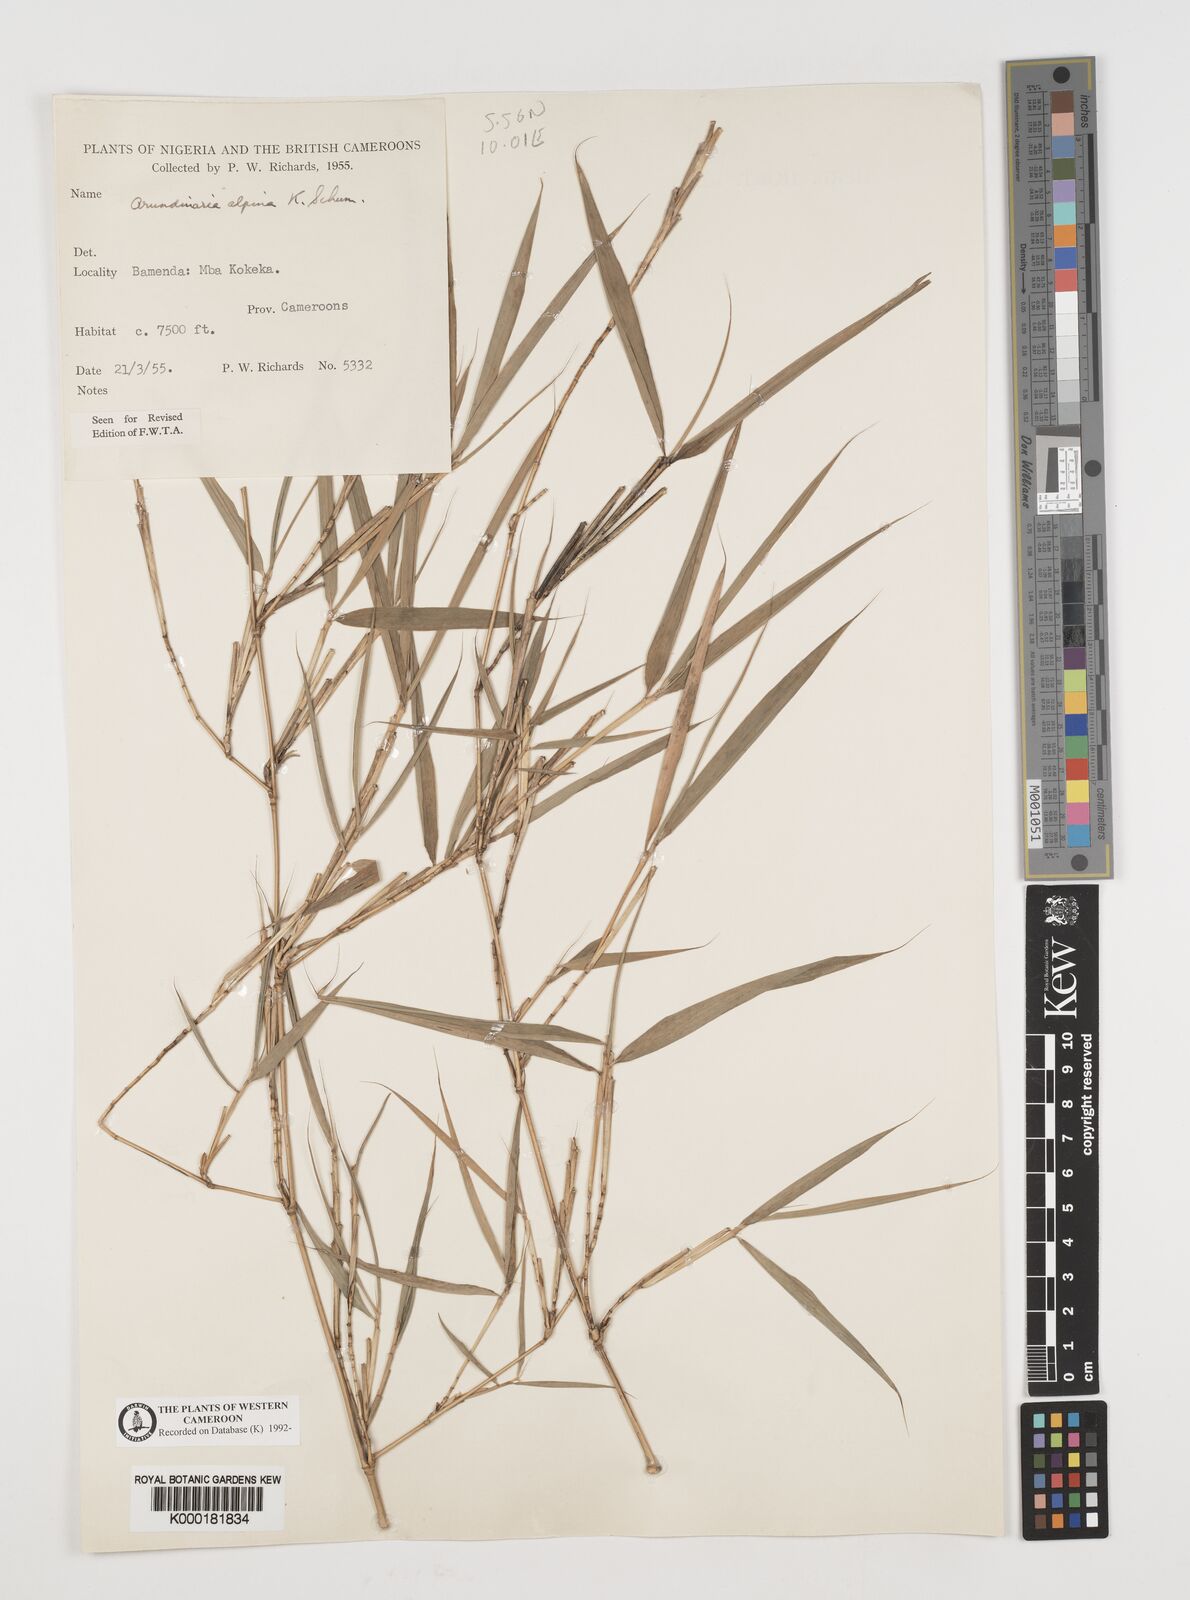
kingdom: Plantae
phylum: Tracheophyta
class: Liliopsida
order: Poales
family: Poaceae
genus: Fargesia
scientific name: Fargesia
